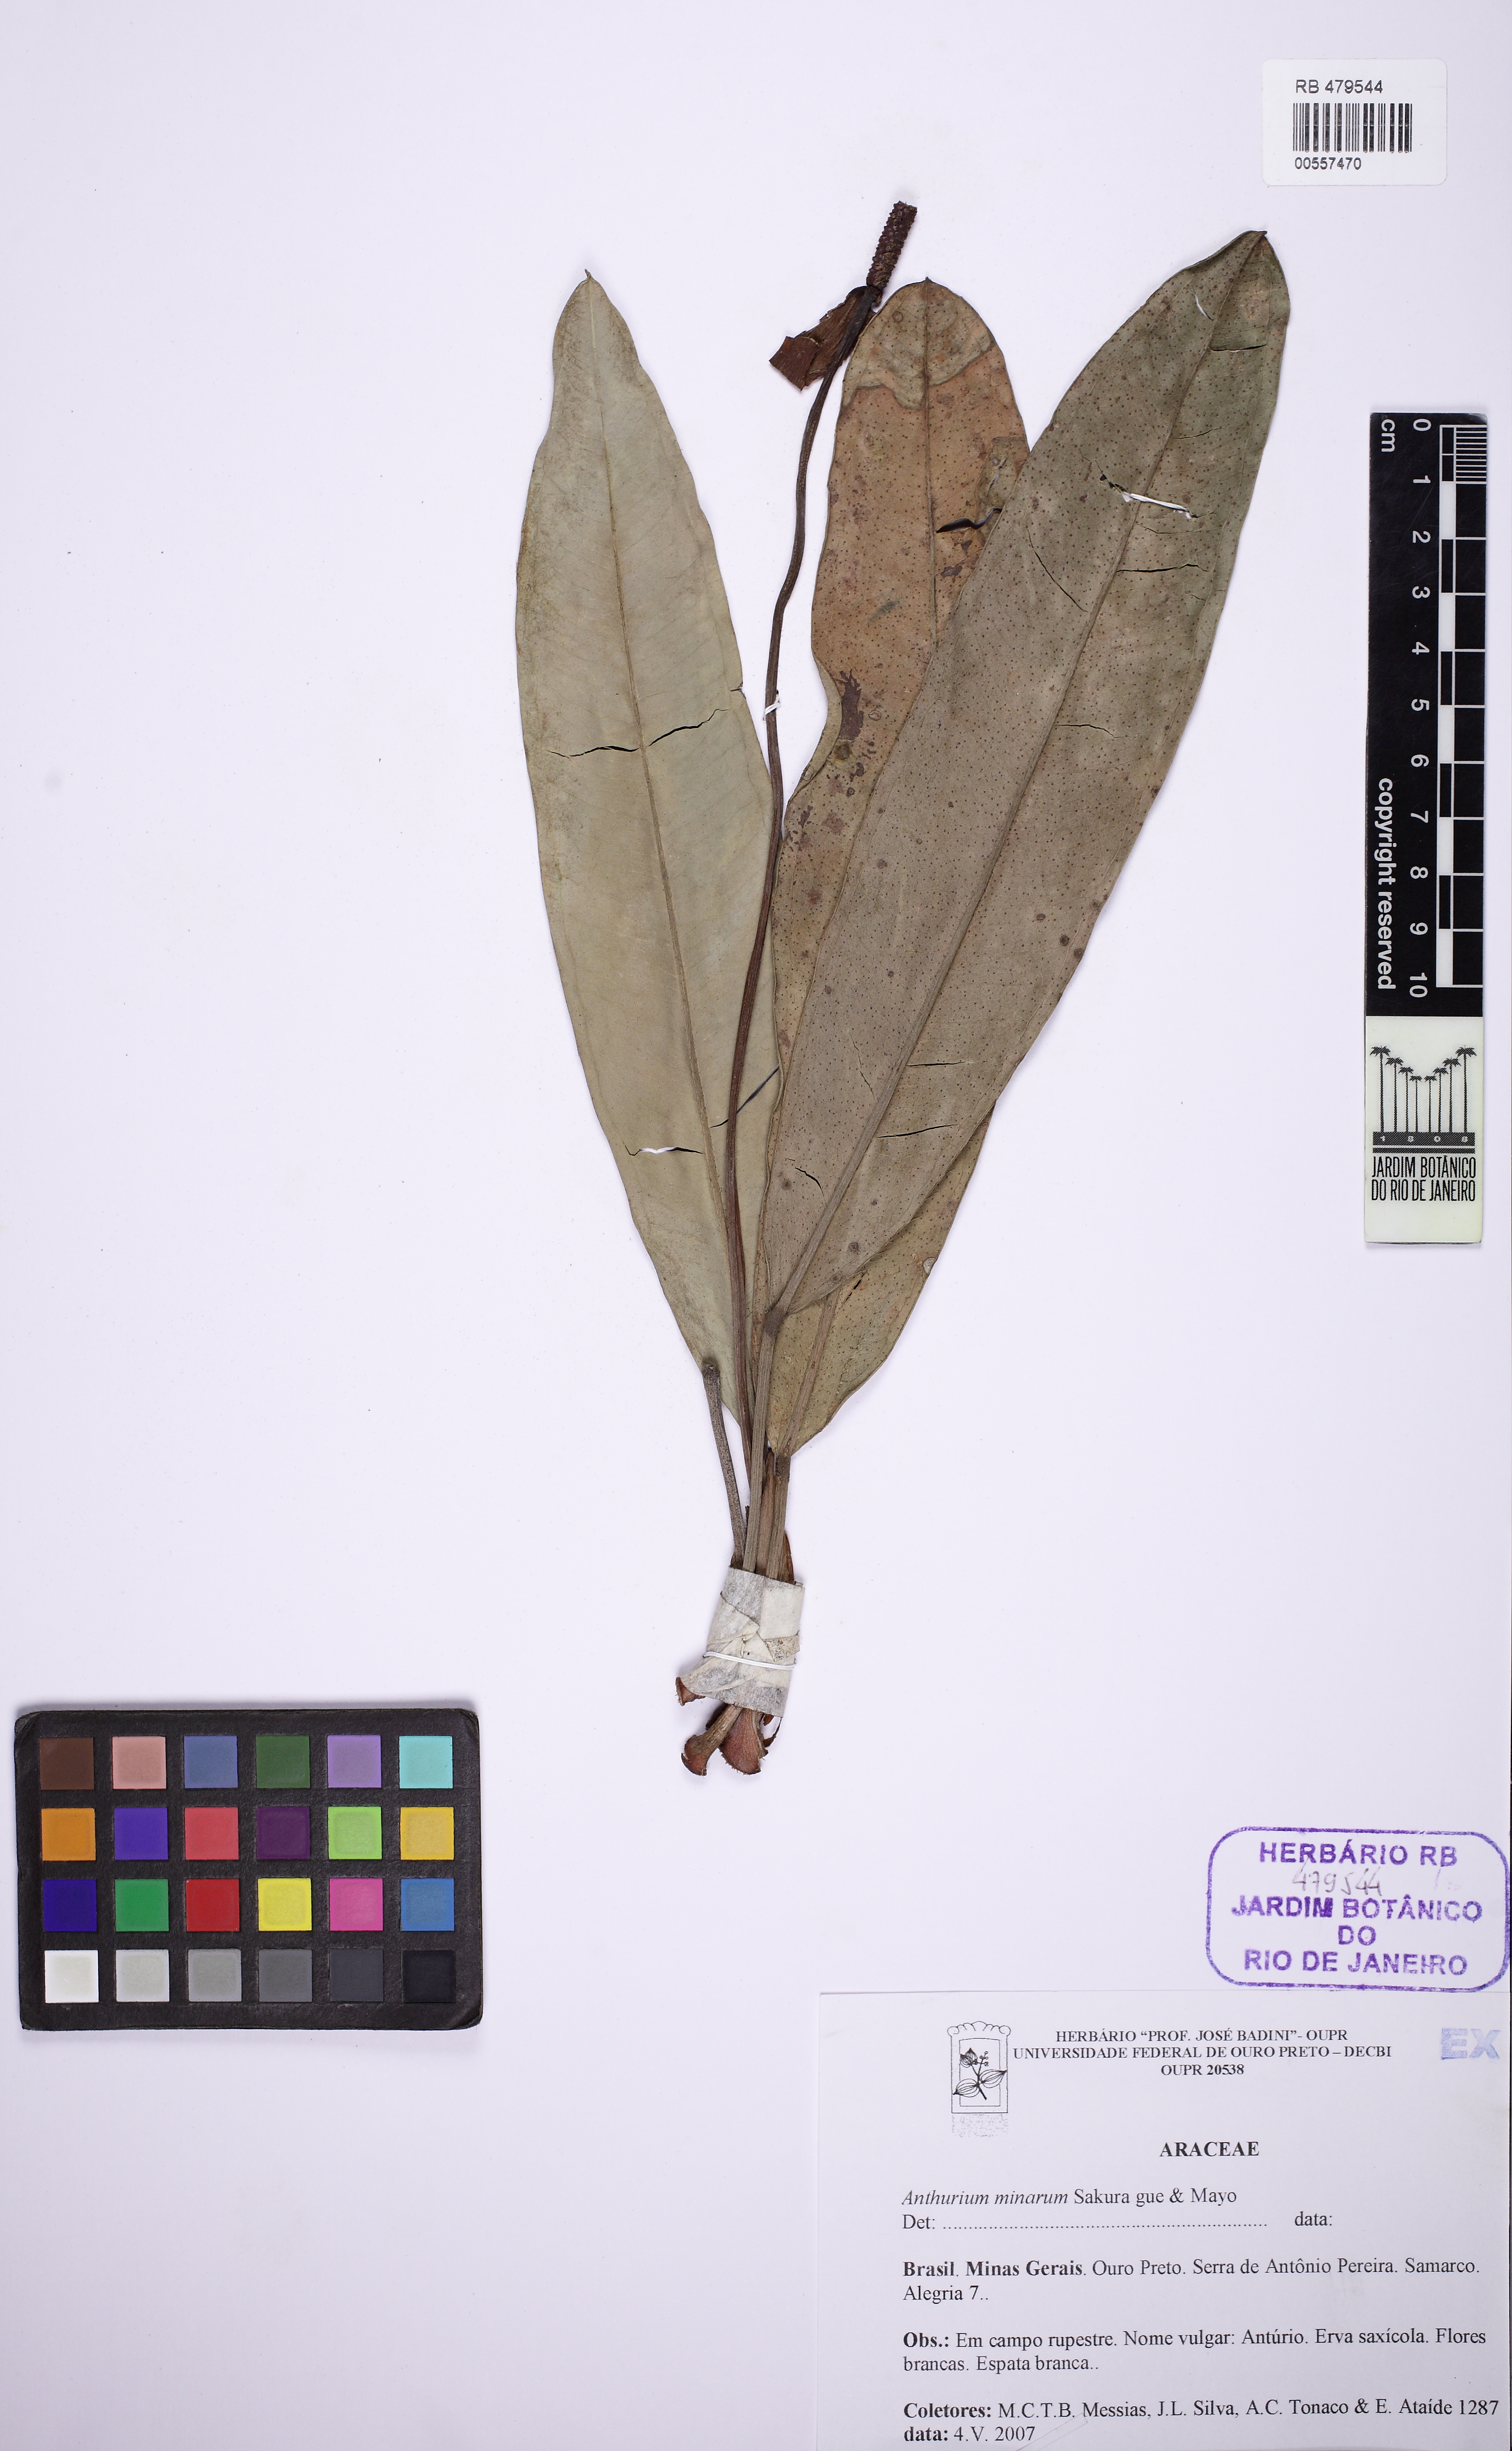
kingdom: Plantae
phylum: Tracheophyta
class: Liliopsida
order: Alismatales
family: Araceae
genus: Anthurium
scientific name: Anthurium minarum
